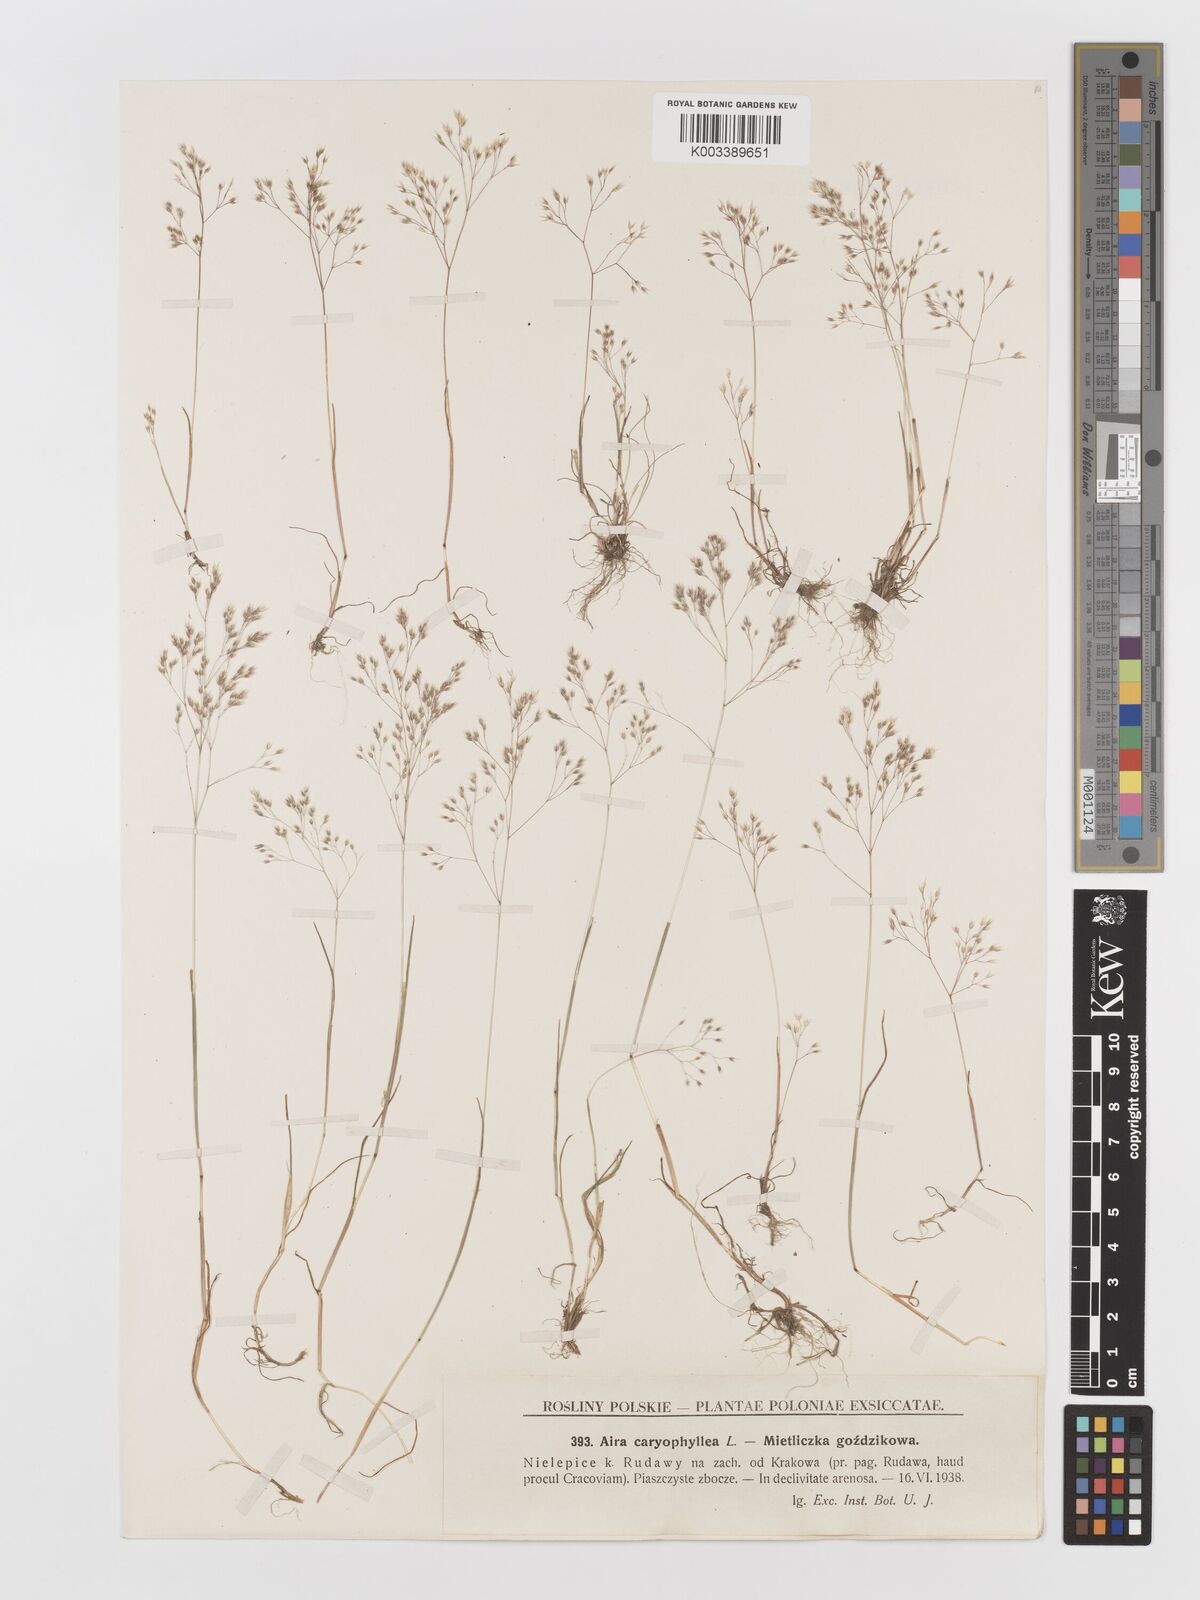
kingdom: Plantae
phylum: Tracheophyta
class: Liliopsida
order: Poales
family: Poaceae
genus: Aira
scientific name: Aira caryophyllea
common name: Silver hairgrass
